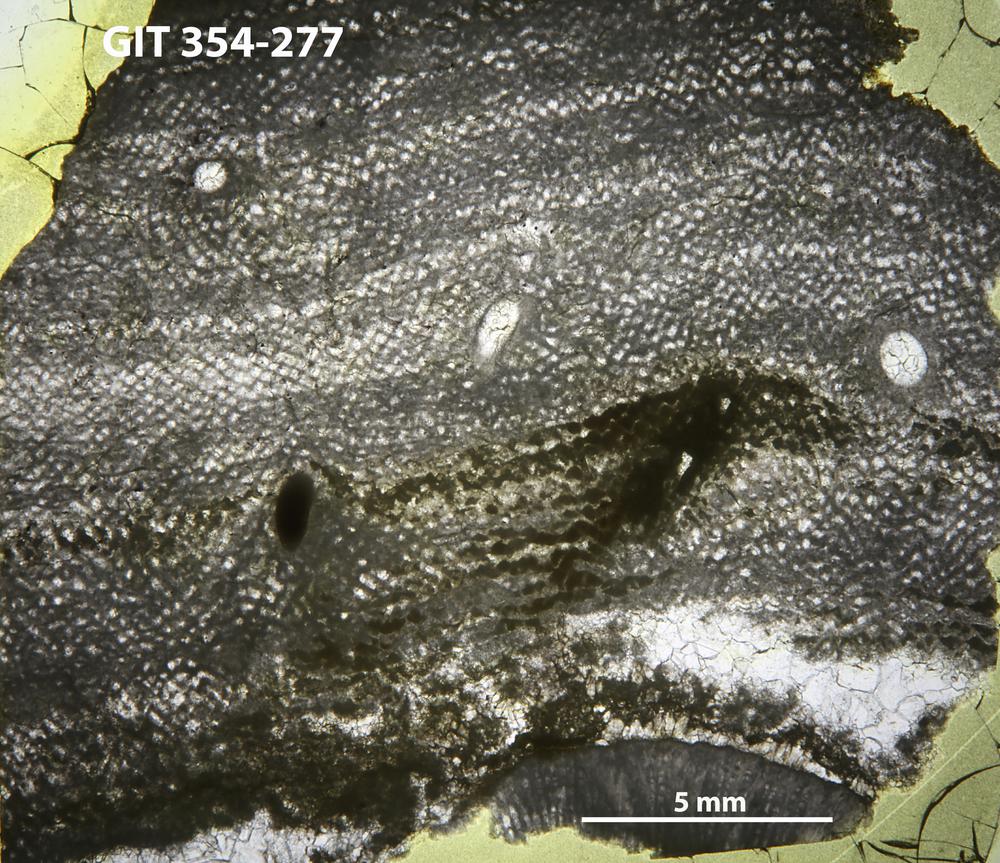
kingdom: Animalia
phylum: Porifera
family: Ecclimadictyidae
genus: Ecclimadictyon
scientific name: Ecclimadictyon porkuni
